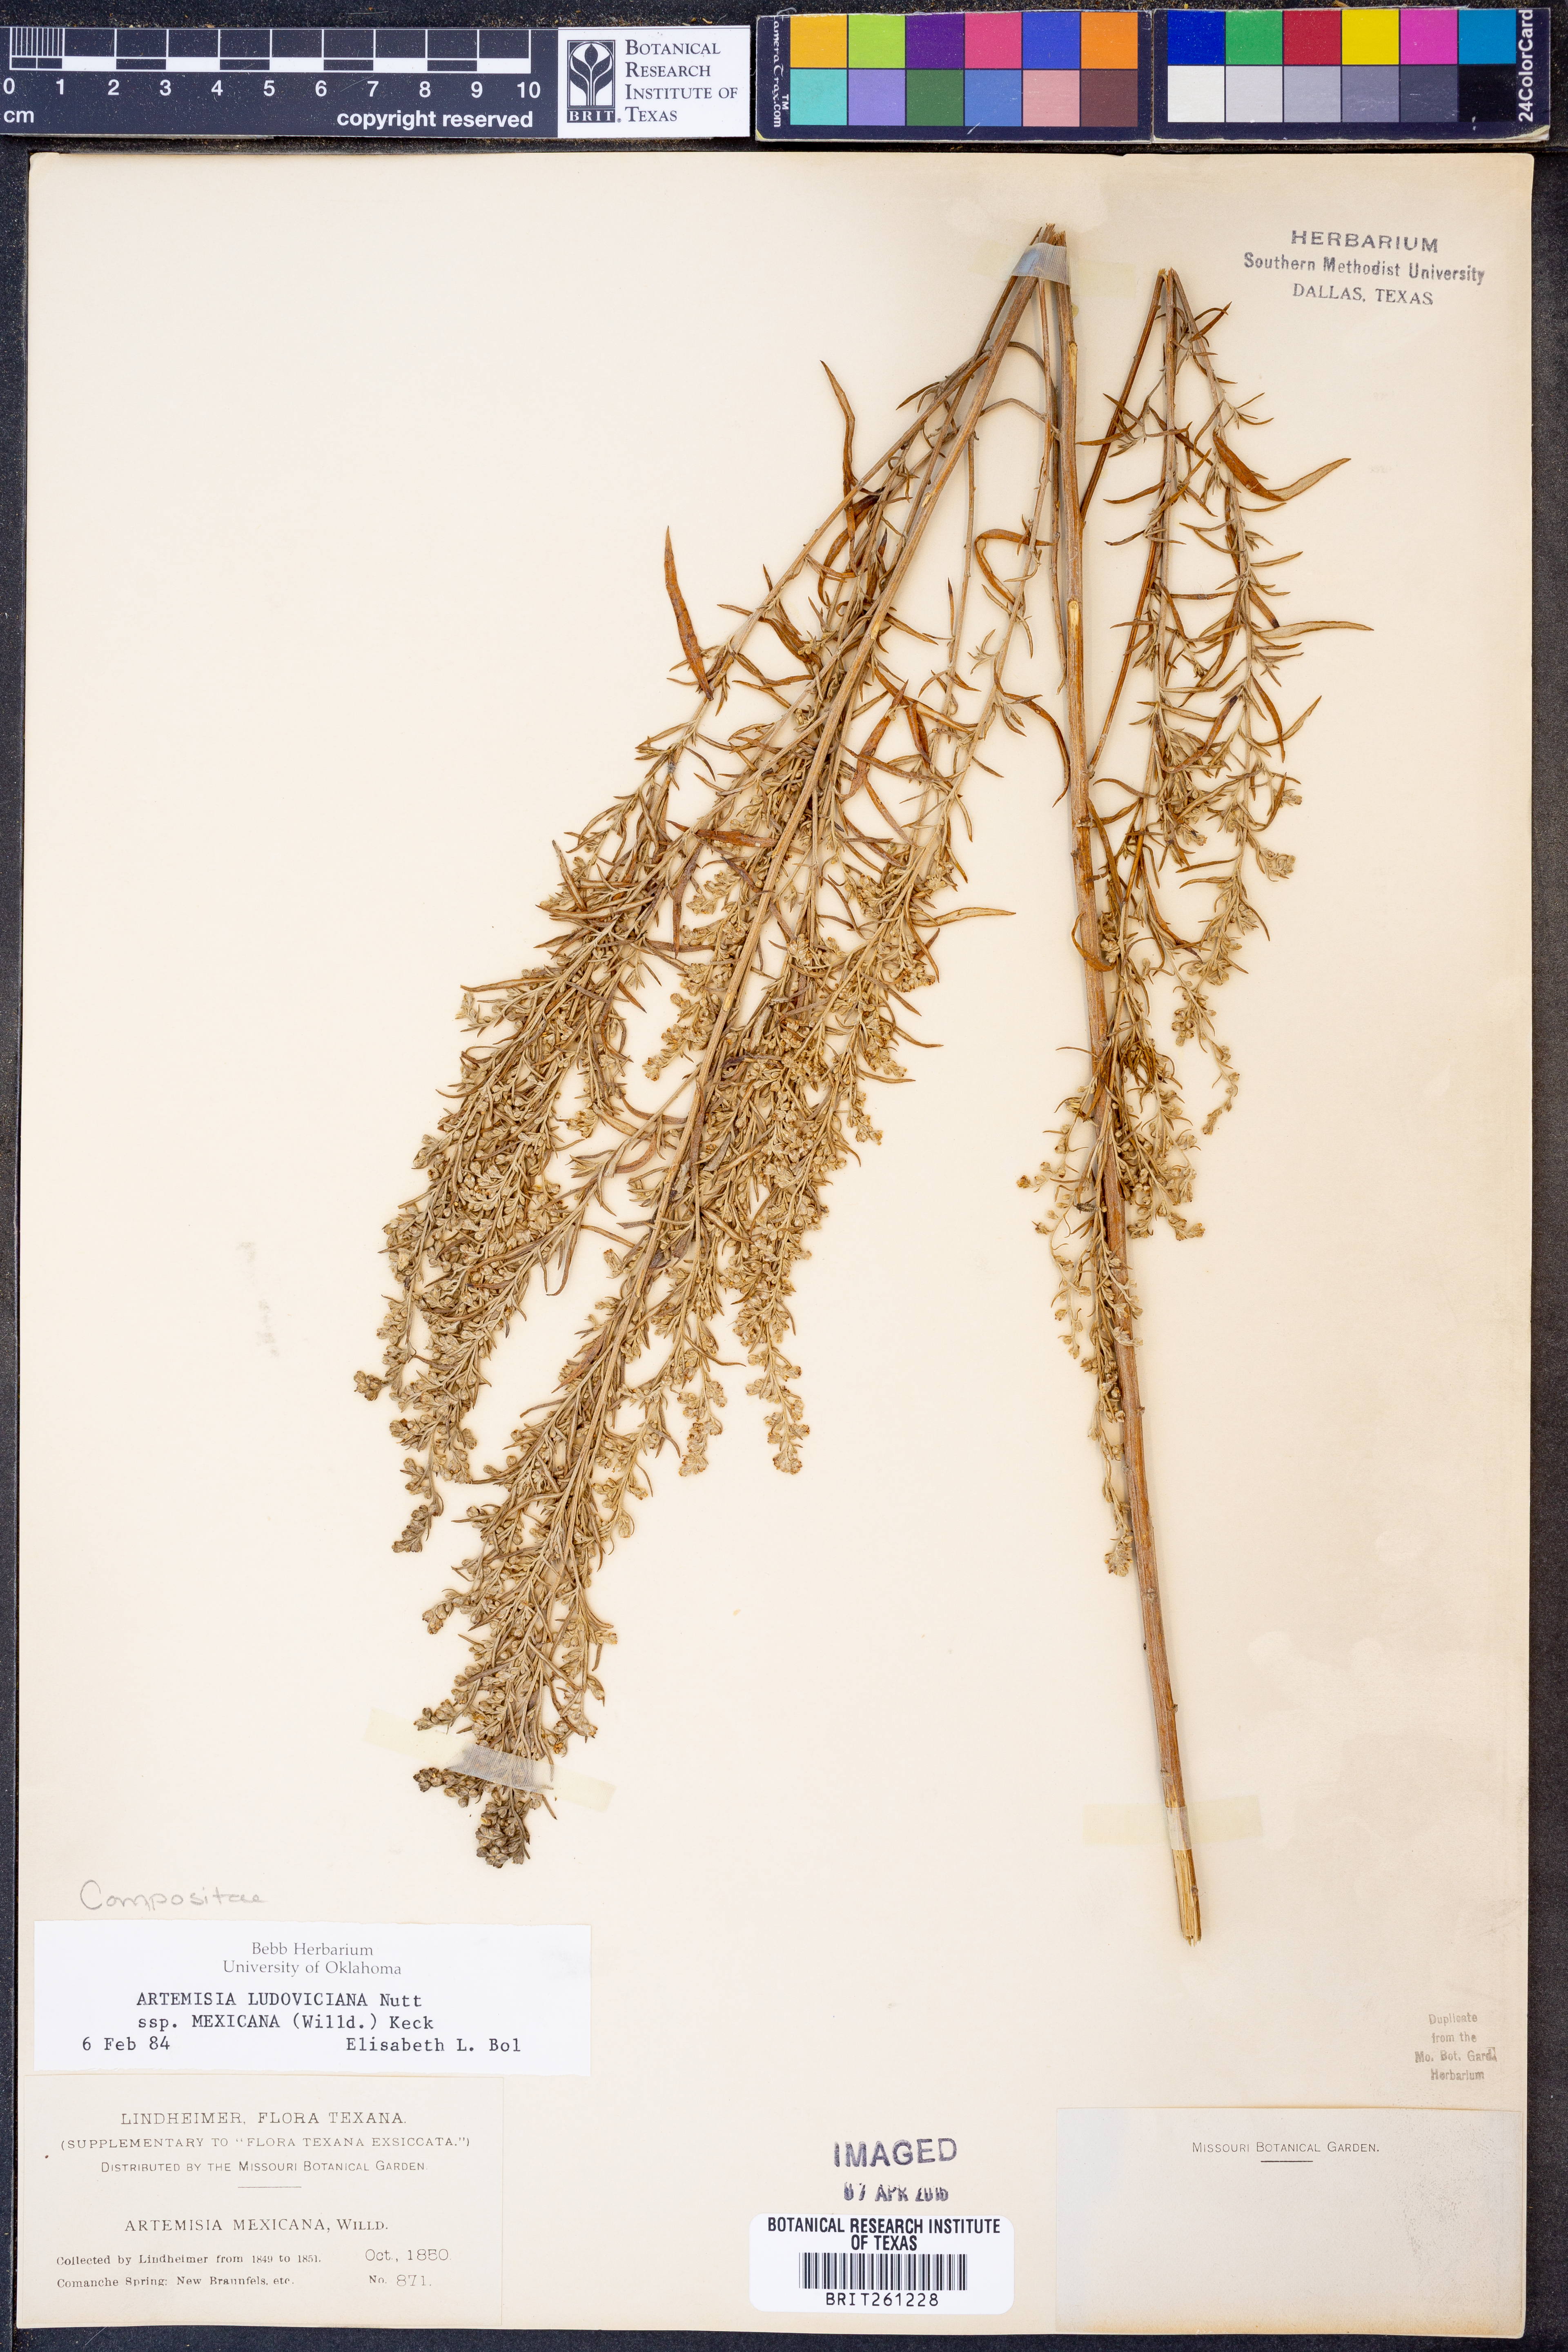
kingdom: Plantae
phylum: Tracheophyta
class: Magnoliopsida
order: Asterales
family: Asteraceae
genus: Artemisia
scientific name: Artemisia ludoviciana
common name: Western mugwort
